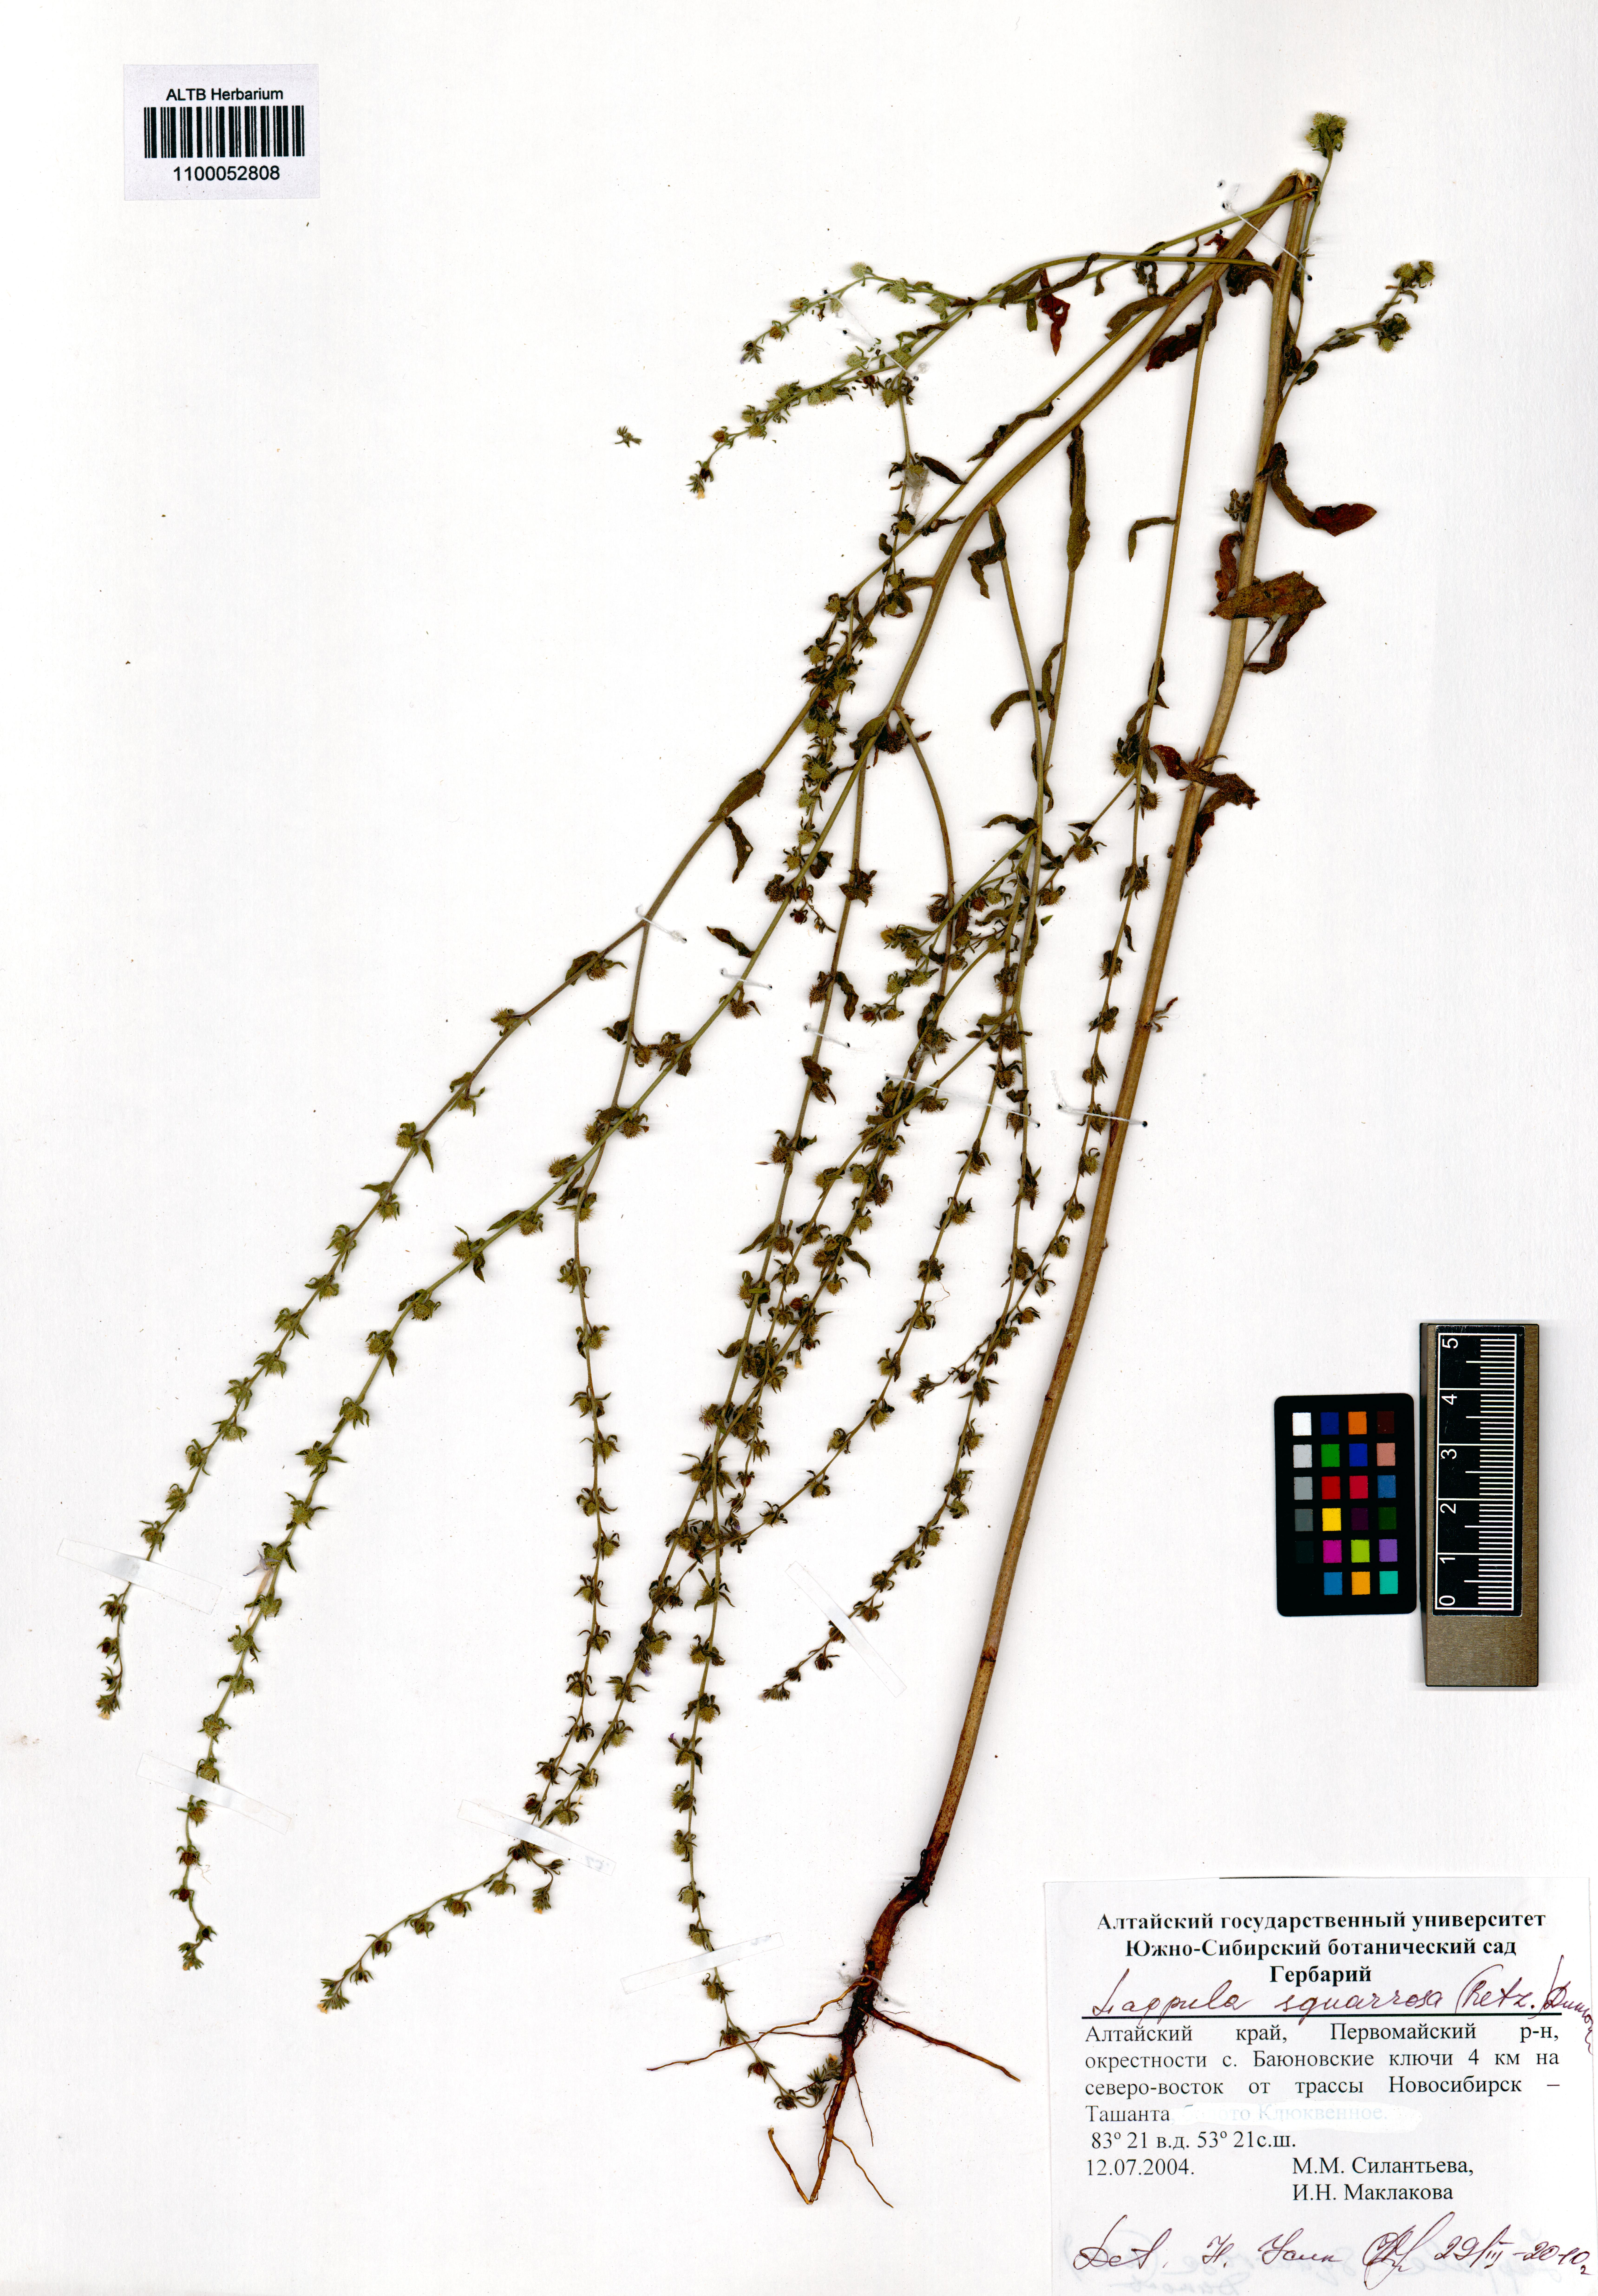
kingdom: Plantae
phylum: Tracheophyta
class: Magnoliopsida
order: Boraginales
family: Boraginaceae
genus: Lappula
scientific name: Lappula squarrosa
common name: European stickseed
